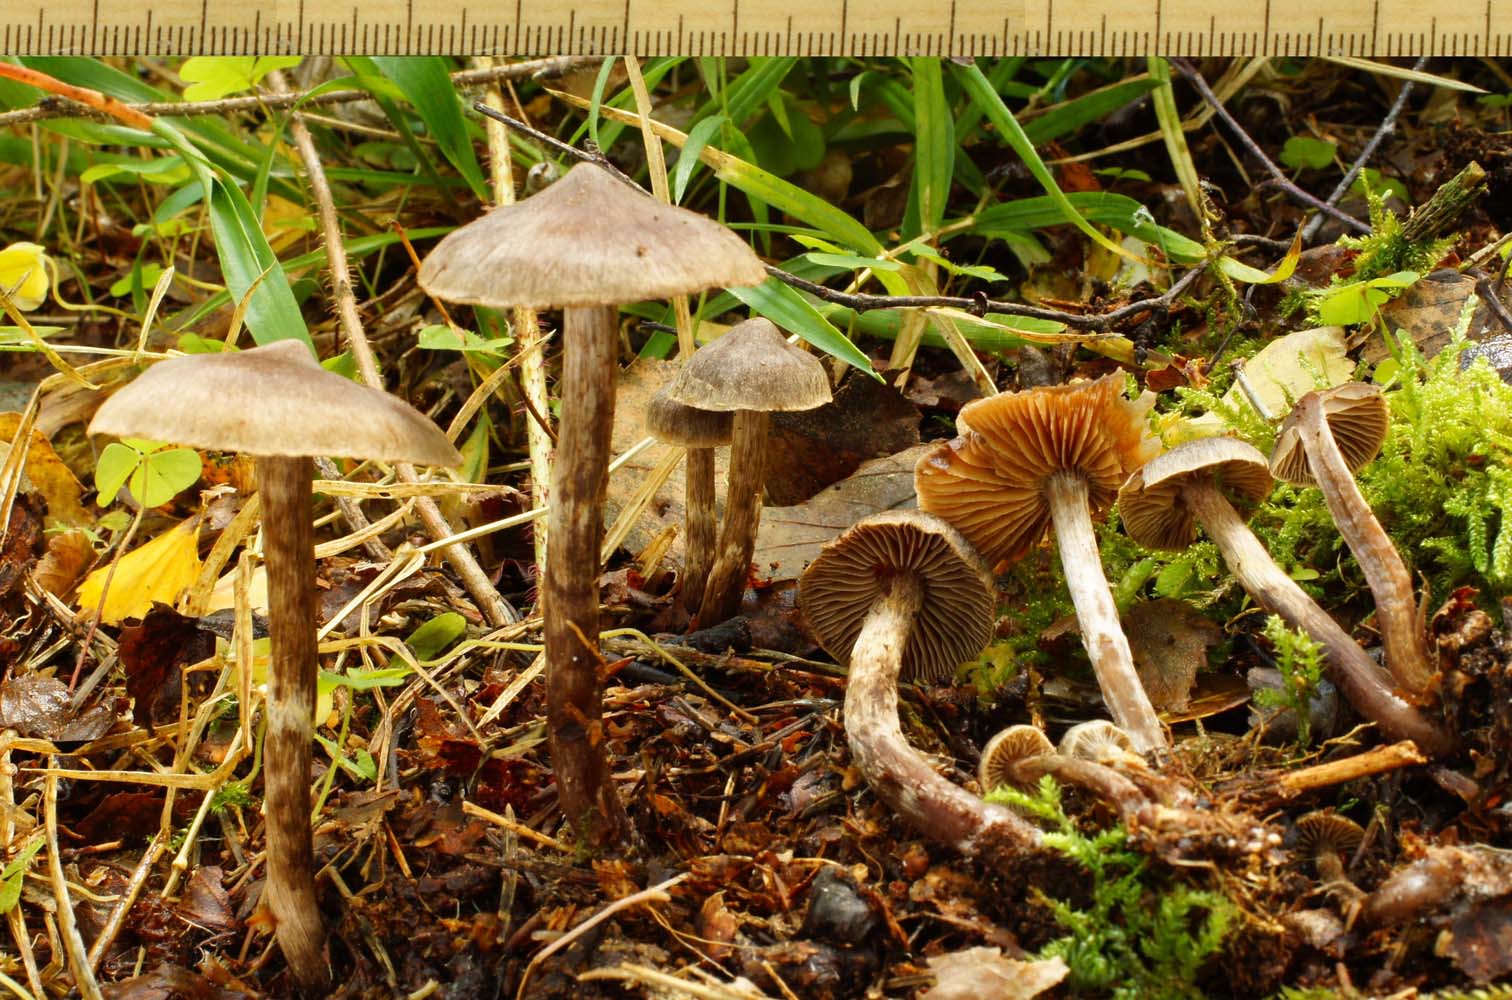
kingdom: Fungi
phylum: Basidiomycota
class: Agaricomycetes
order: Agaricales
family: Cortinariaceae
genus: Cortinarius
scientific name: Cortinarius
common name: pelargonie-slørhat
